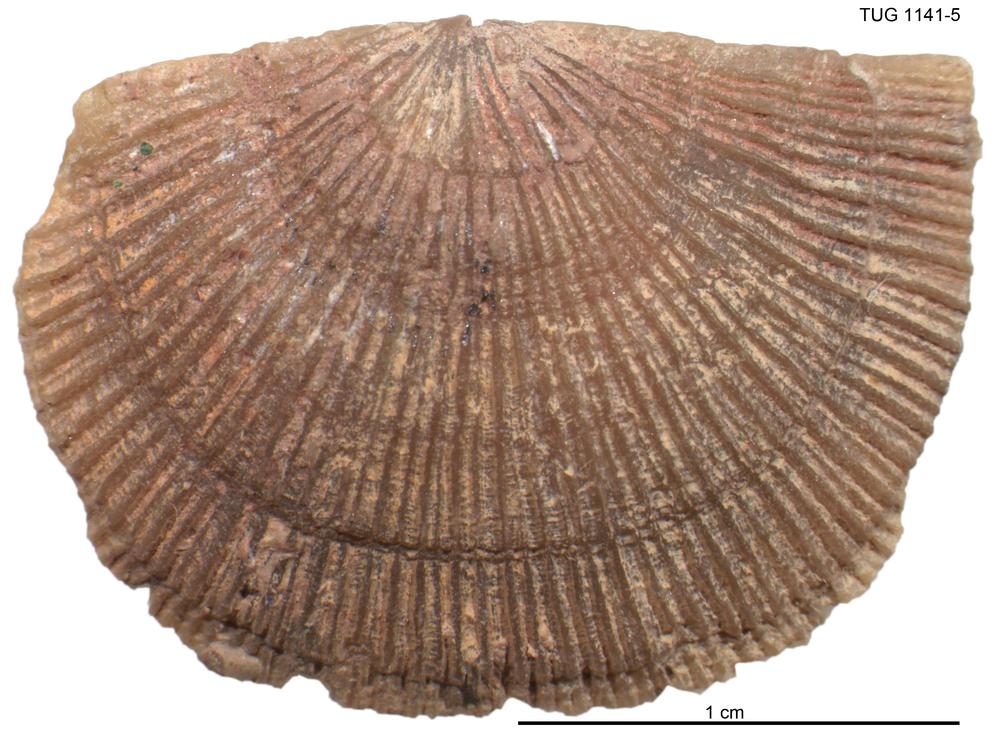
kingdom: Animalia
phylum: Brachiopoda
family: Gonambonitidae
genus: Gonambonites
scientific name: Gonambonites plana
